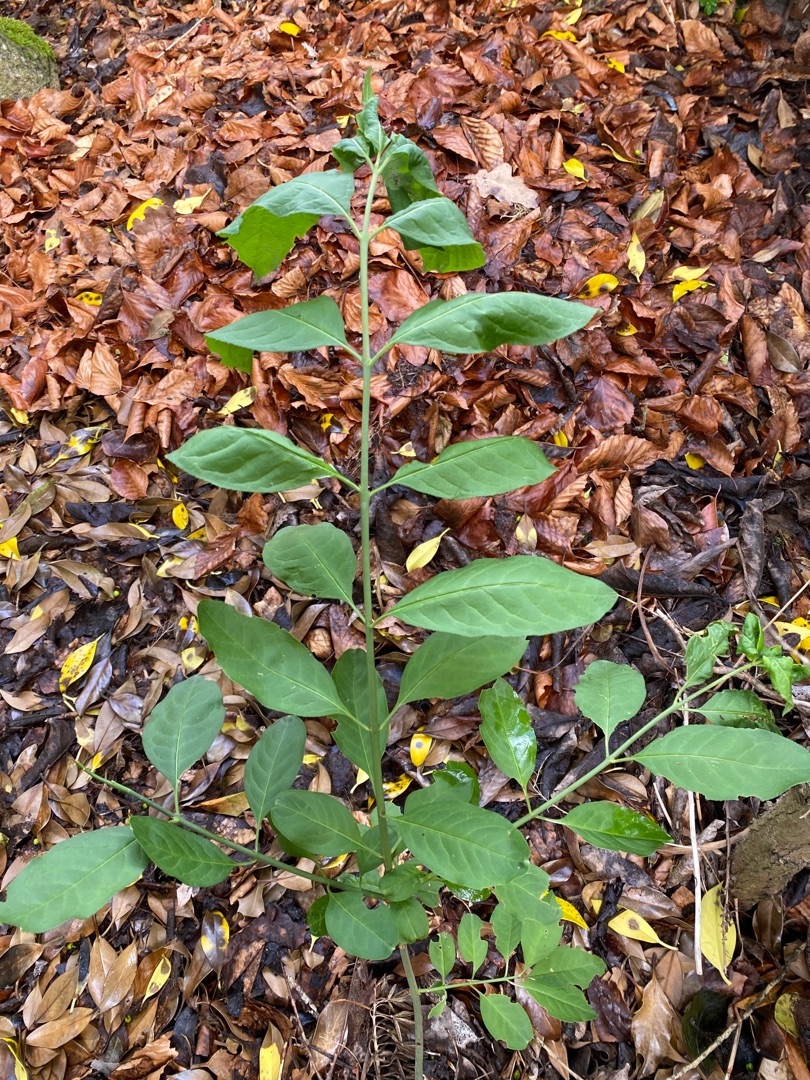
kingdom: Plantae
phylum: Tracheophyta
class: Magnoliopsida
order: Celastrales
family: Celastraceae
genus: Euonymus
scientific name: Euonymus europaeus
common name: Benved
